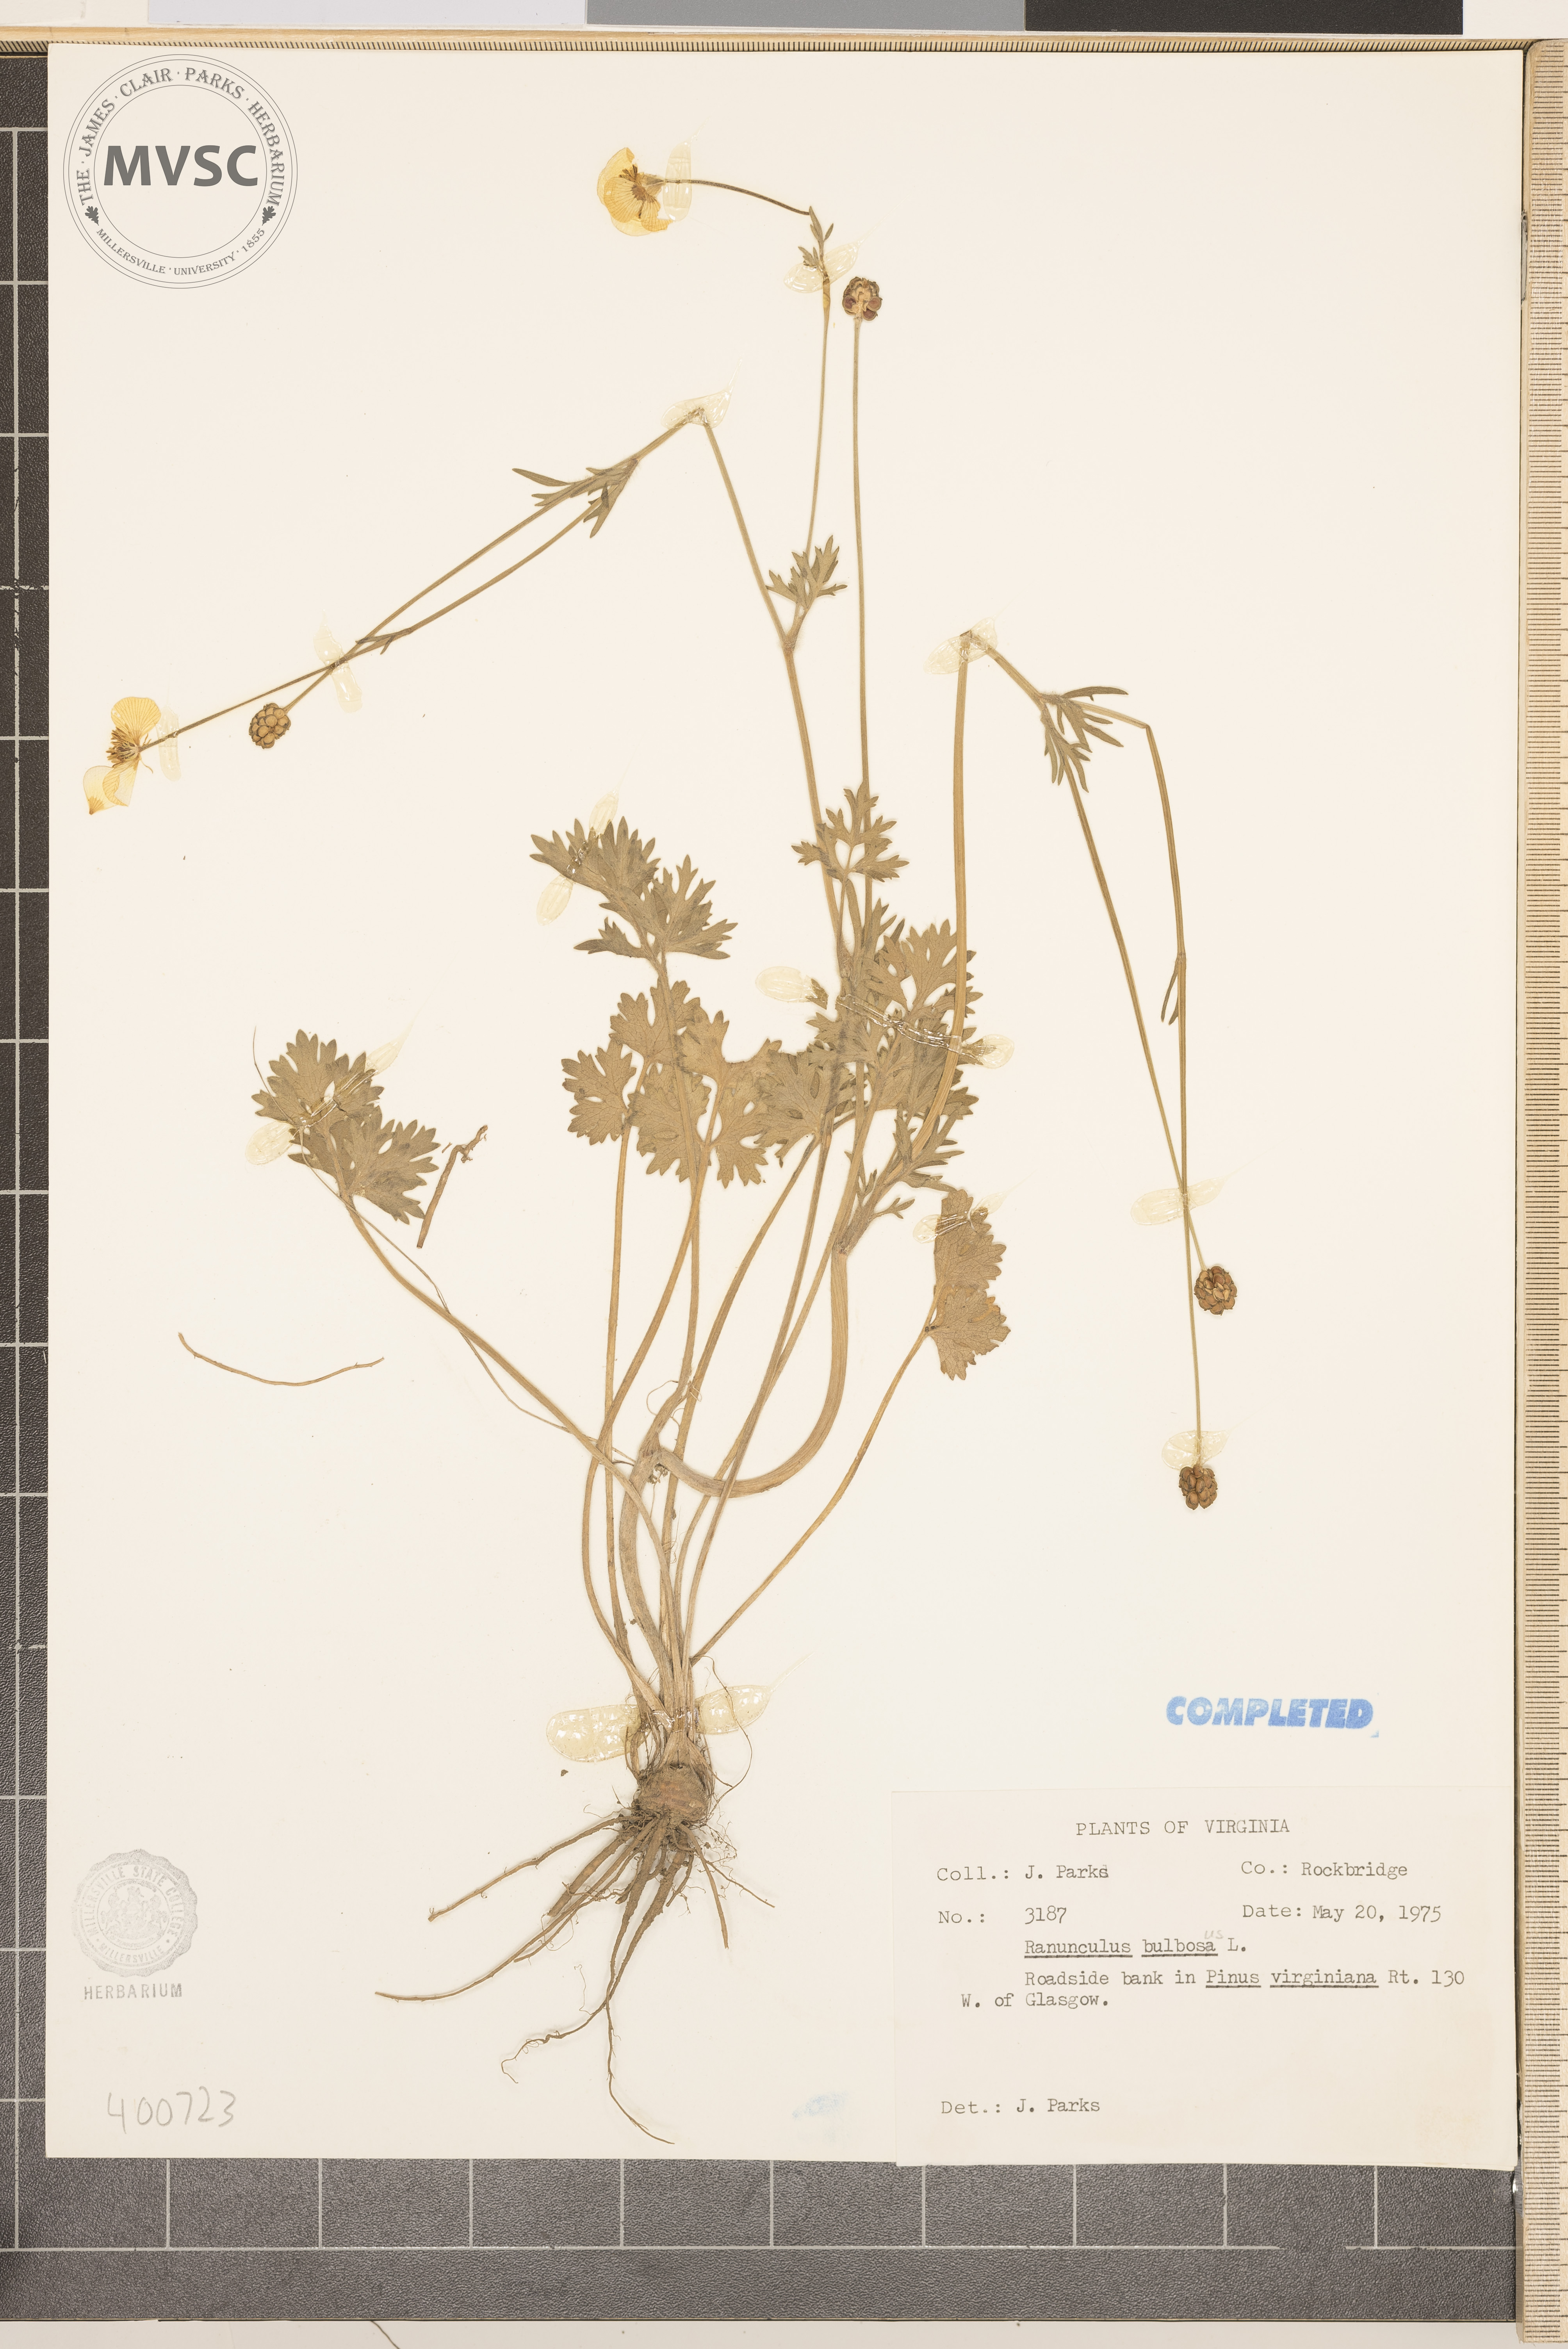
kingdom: Plantae
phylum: Tracheophyta
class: Magnoliopsida
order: Ranunculales
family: Ranunculaceae
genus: Ranunculus
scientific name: Ranunculus bulbosus
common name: buttercup
